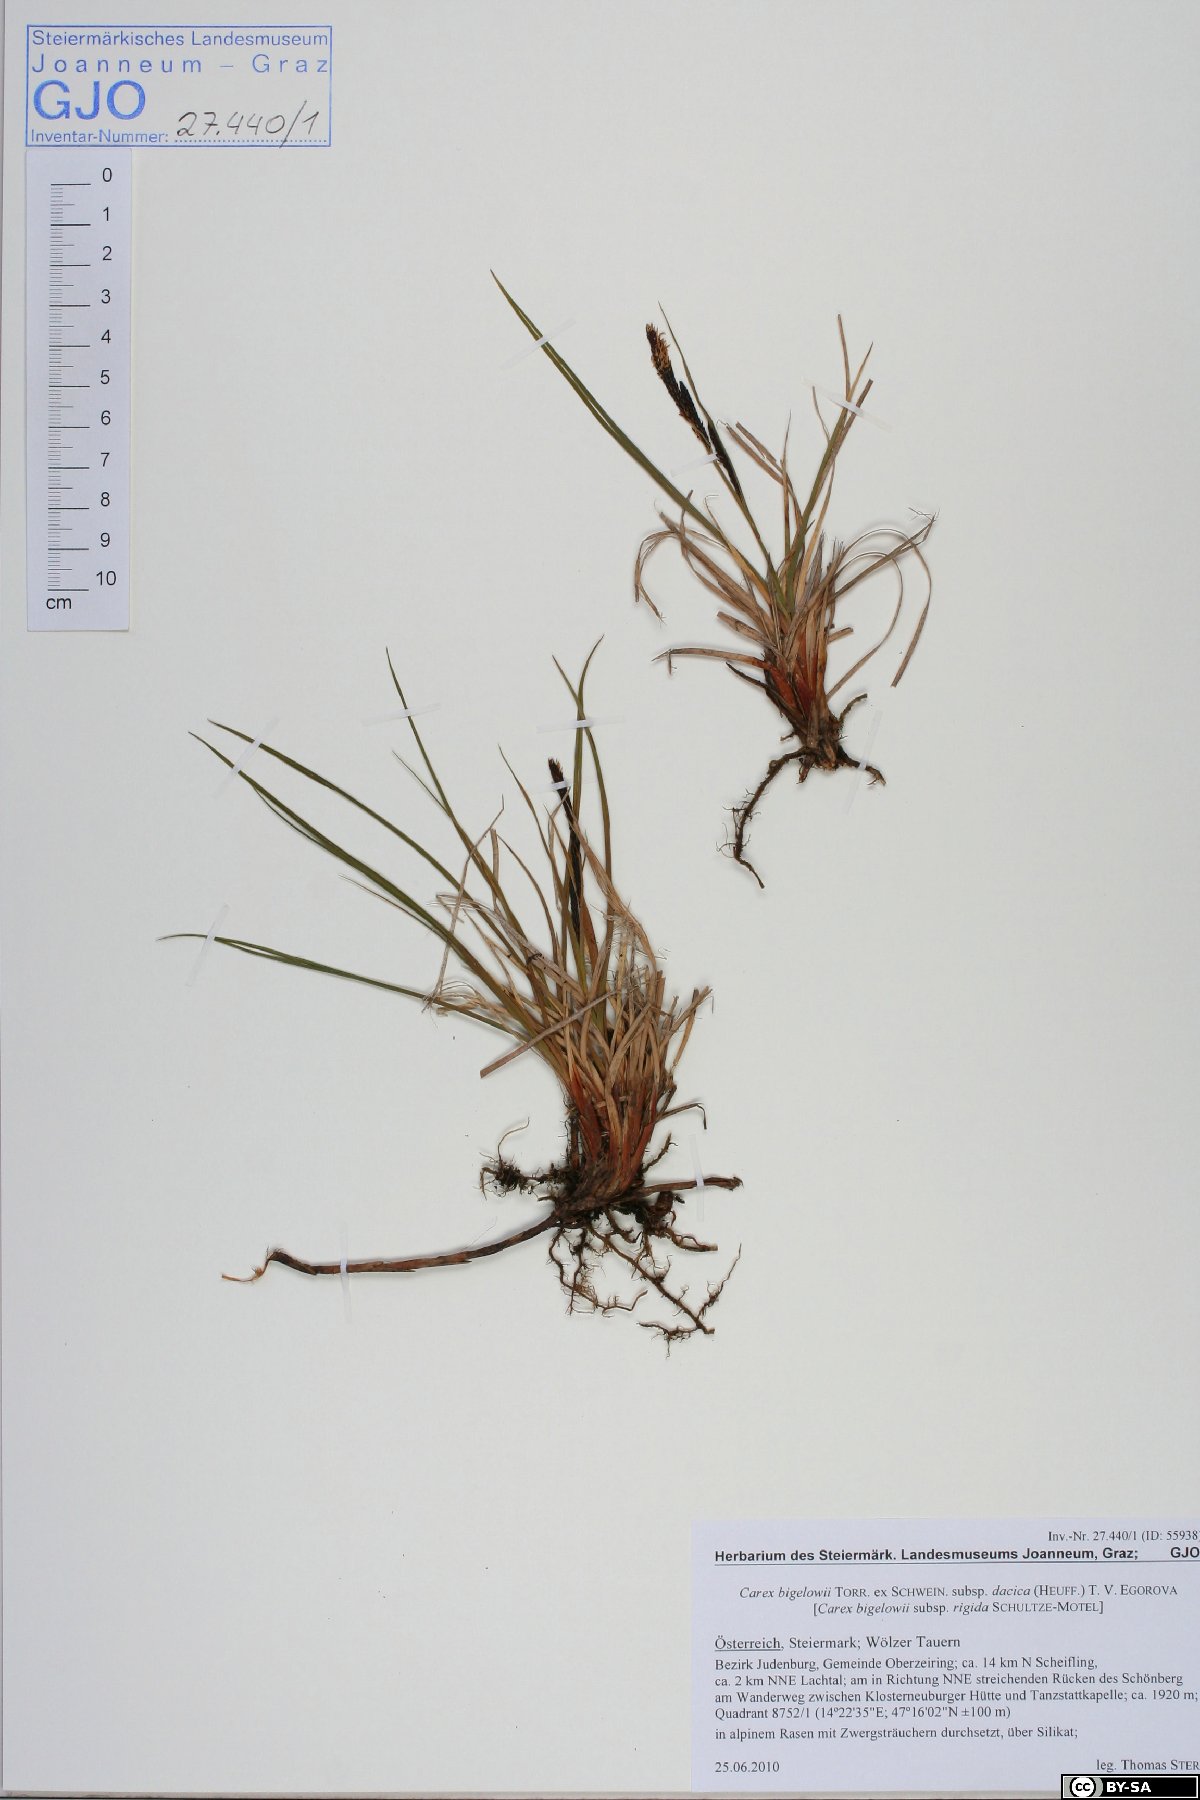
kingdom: Plantae
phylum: Tracheophyta
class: Liliopsida
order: Poales
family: Cyperaceae
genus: Carex
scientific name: Carex dacica
